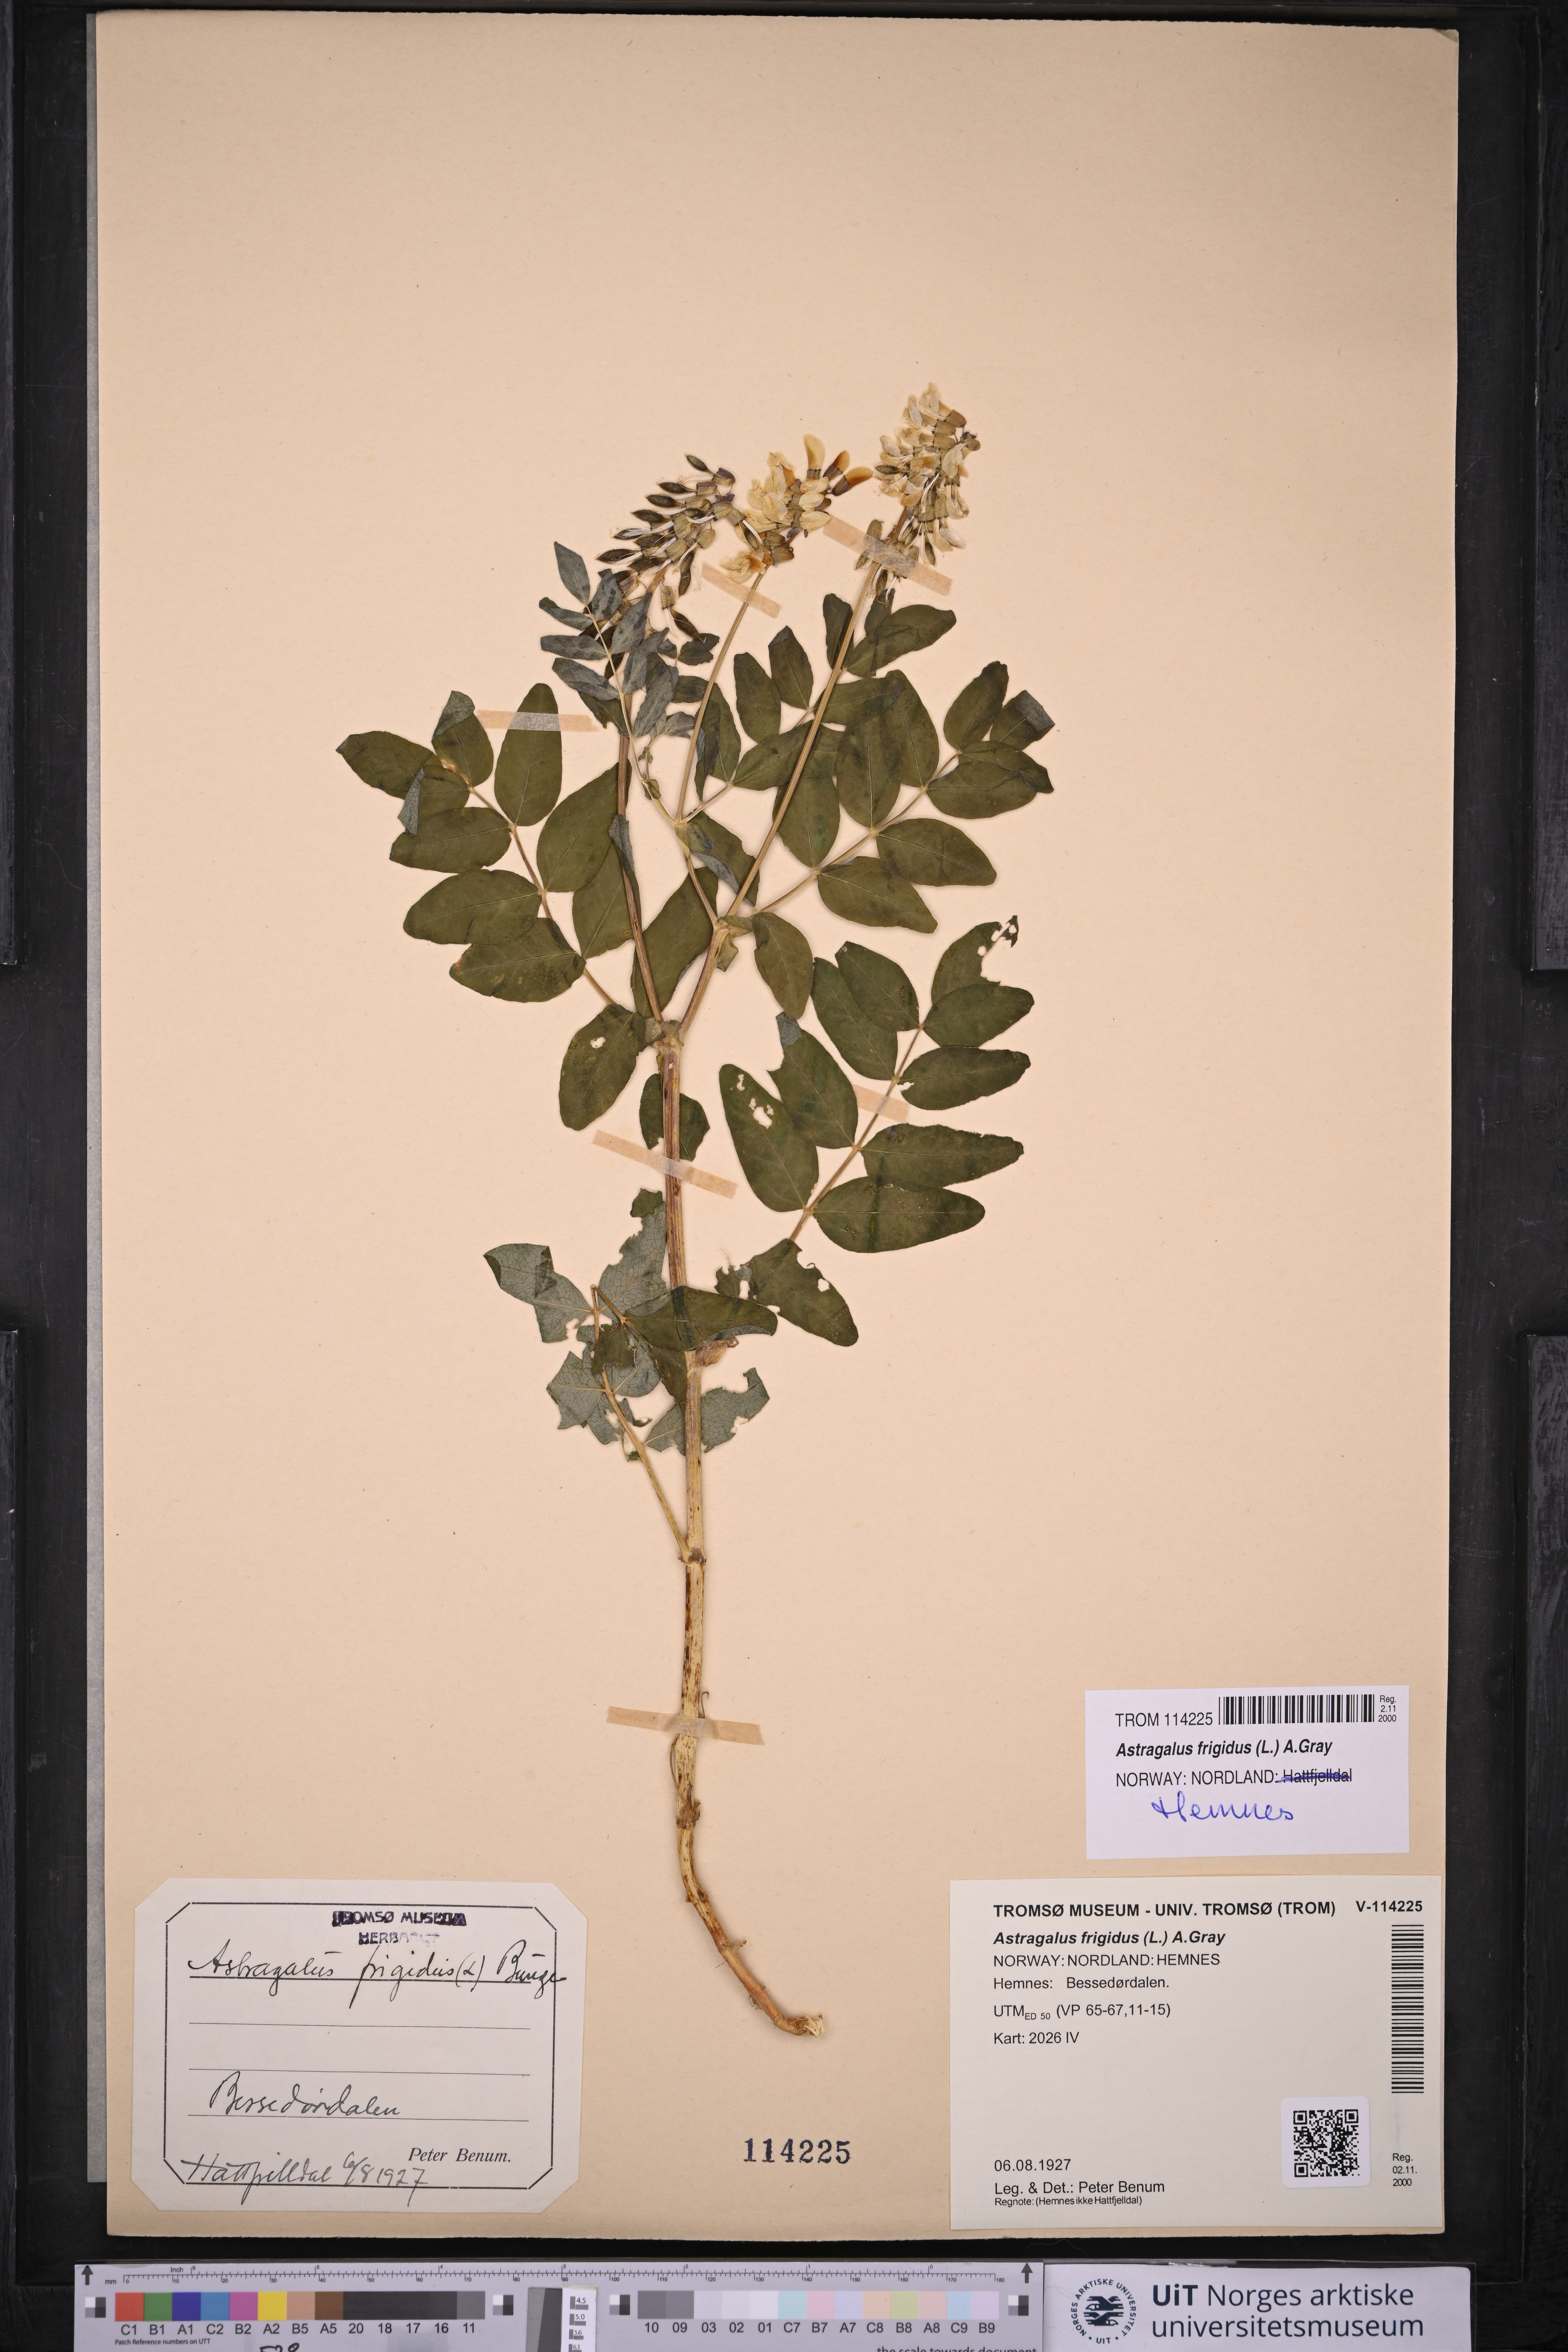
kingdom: Plantae
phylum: Tracheophyta
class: Magnoliopsida
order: Fabales
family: Fabaceae
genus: Astragalus
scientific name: Astragalus frigidus
